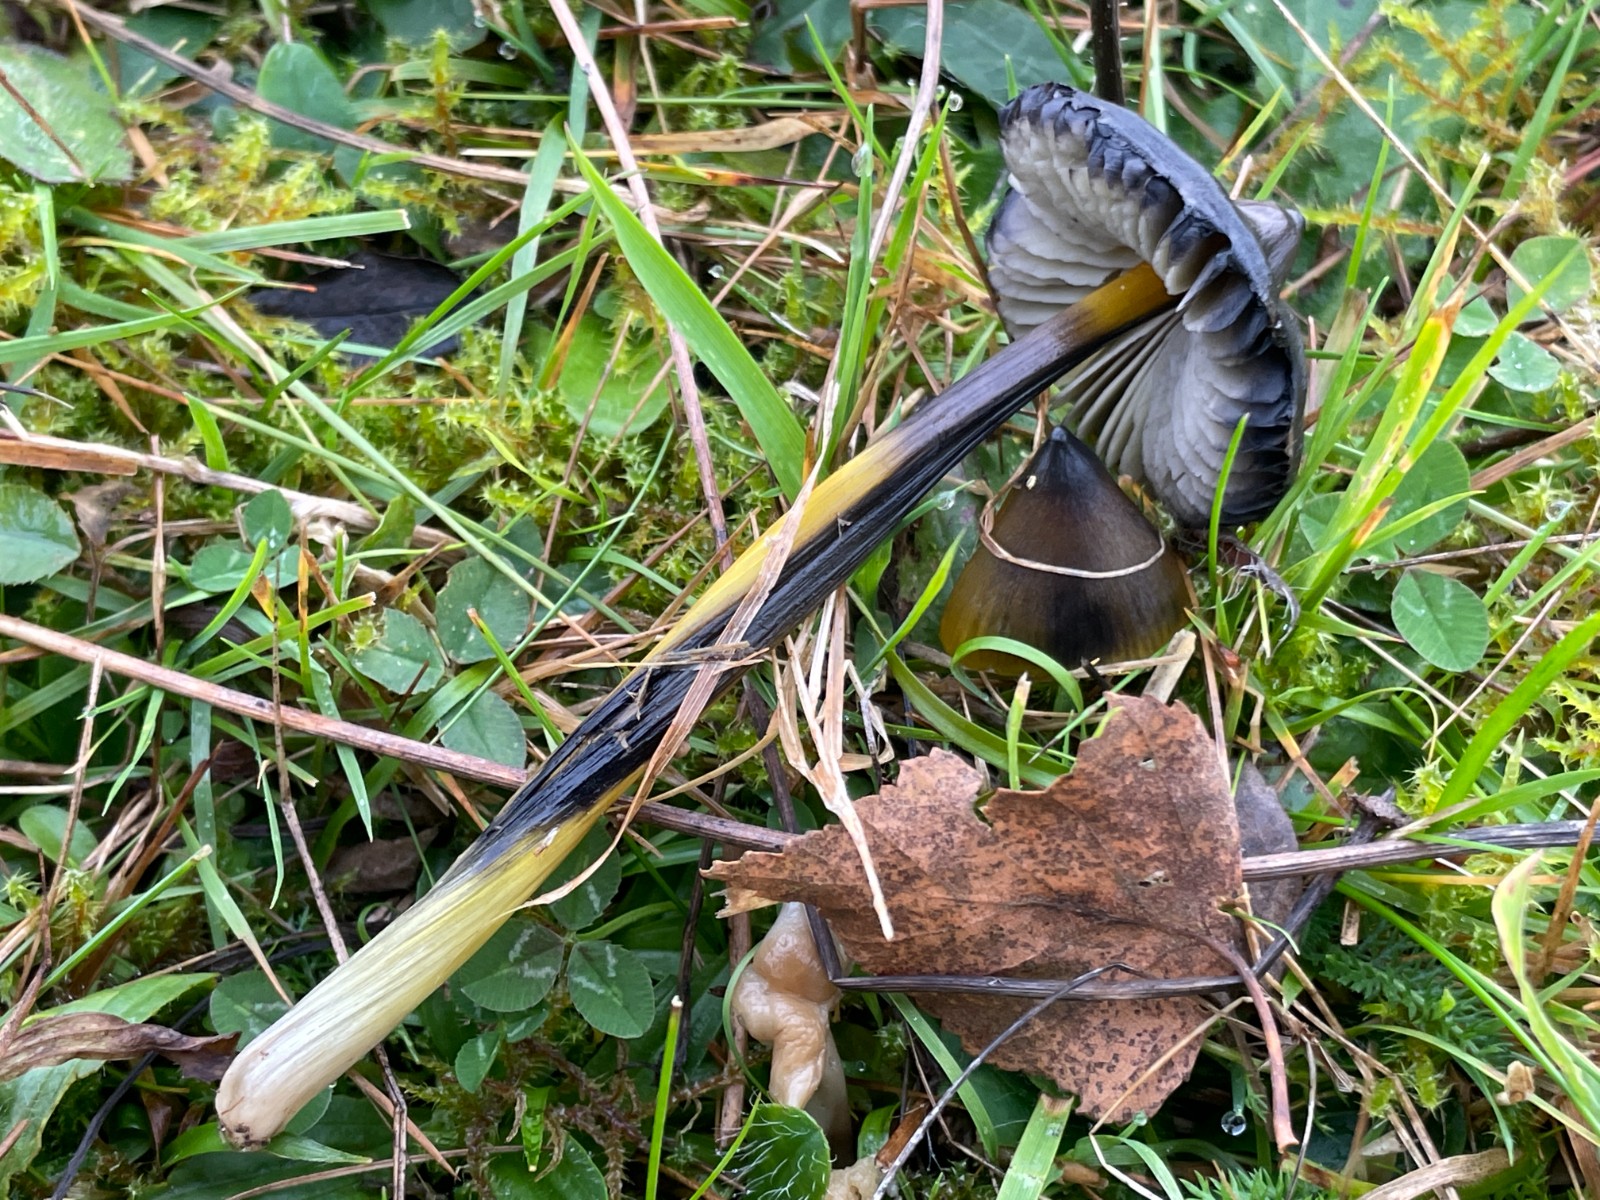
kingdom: Fungi
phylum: Basidiomycota
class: Agaricomycetes
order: Agaricales
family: Hygrophoraceae
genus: Hygrocybe
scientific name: Hygrocybe conica
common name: kegle-vokshat
